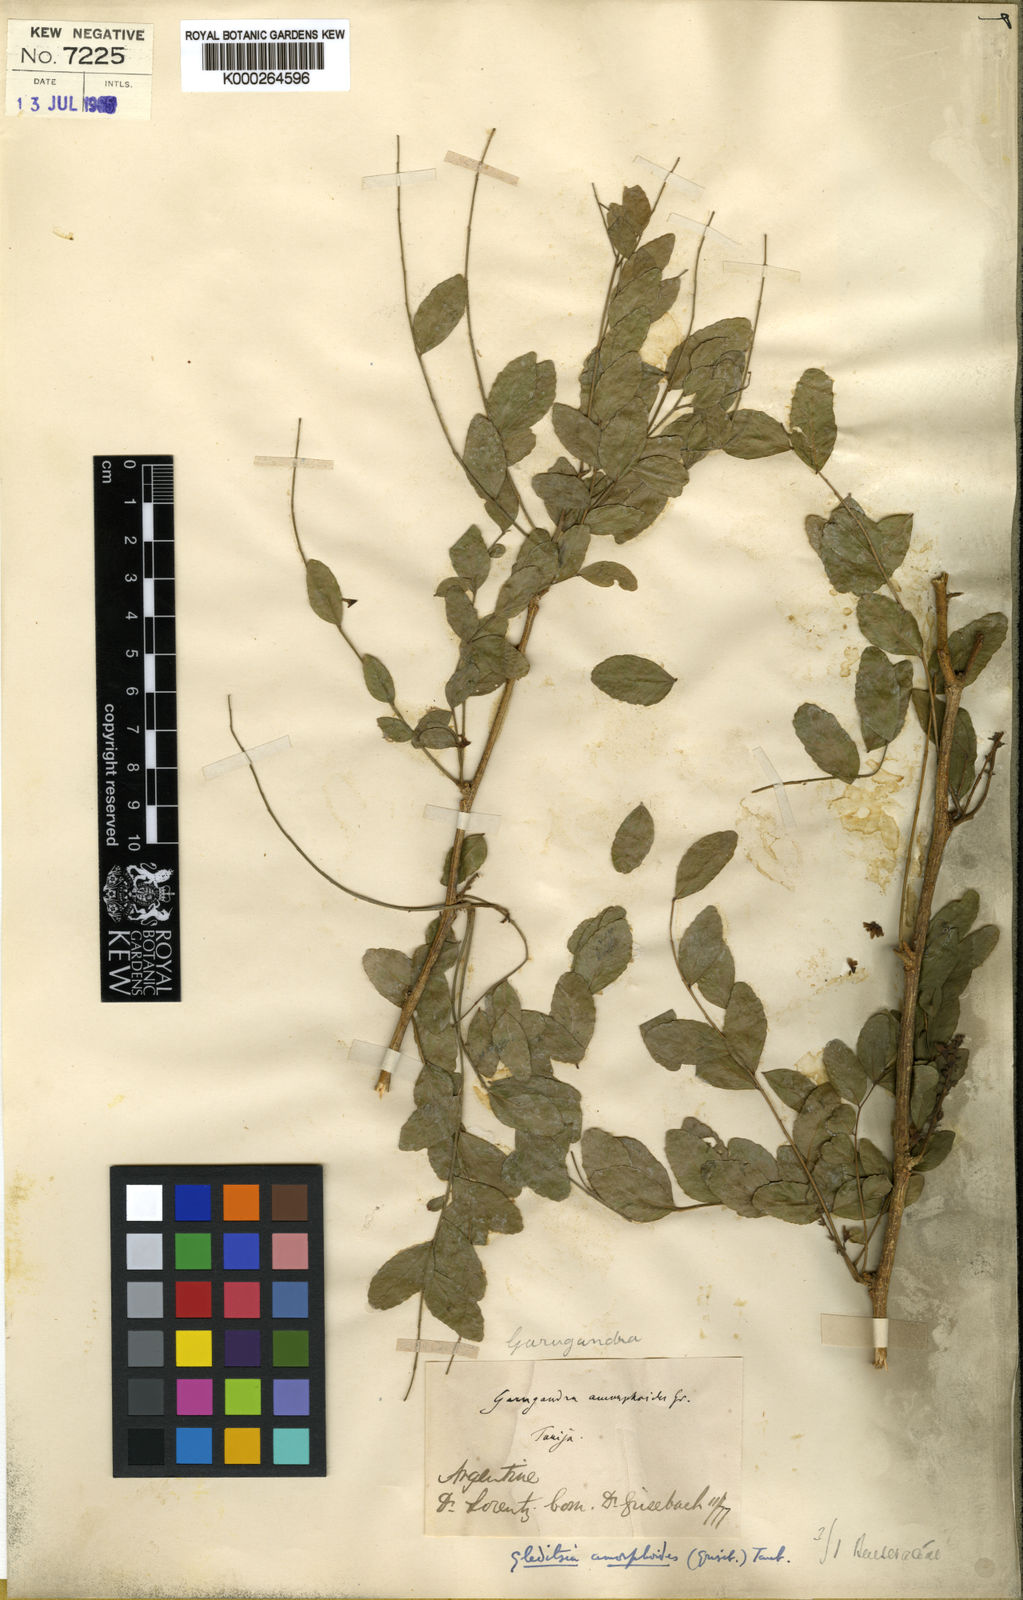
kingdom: Plantae
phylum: Tracheophyta
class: Magnoliopsida
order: Fabales
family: Fabaceae
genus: Gleditsia
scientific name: Gleditsia amorphoides
